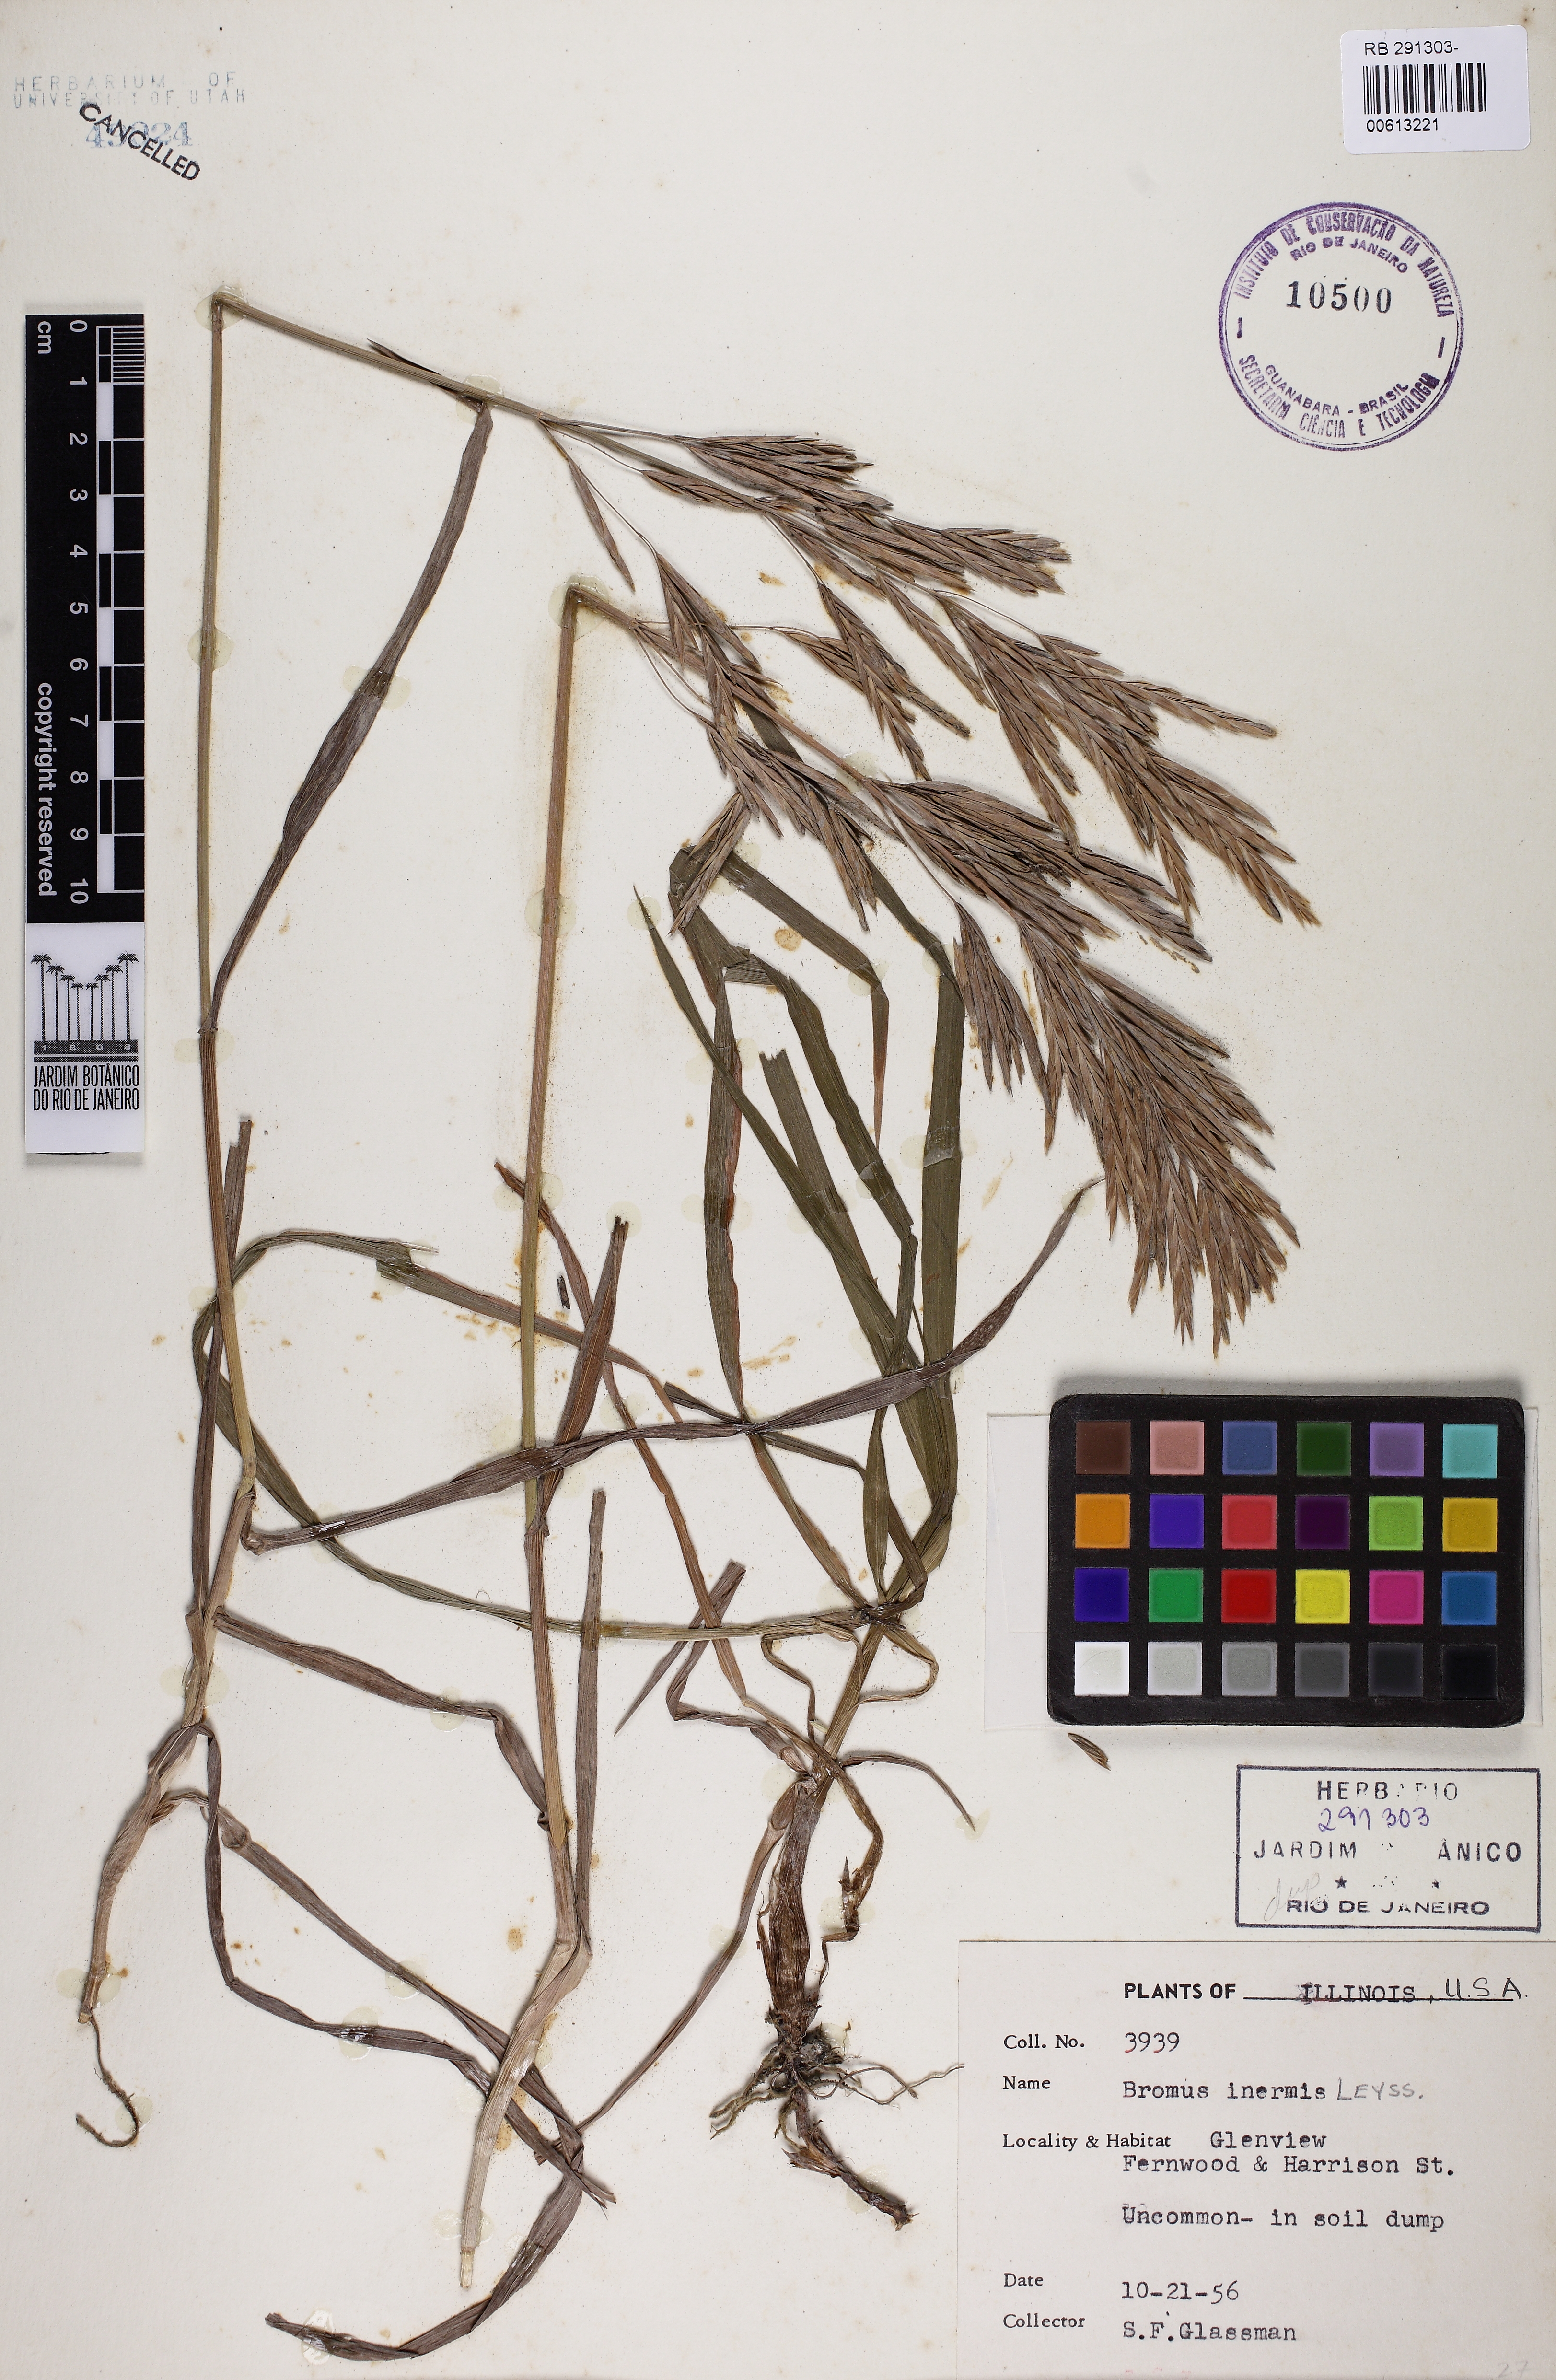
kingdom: Plantae
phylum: Tracheophyta
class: Liliopsida
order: Poales
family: Poaceae
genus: Bromus
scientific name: Bromus inermis
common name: Smooth brome
